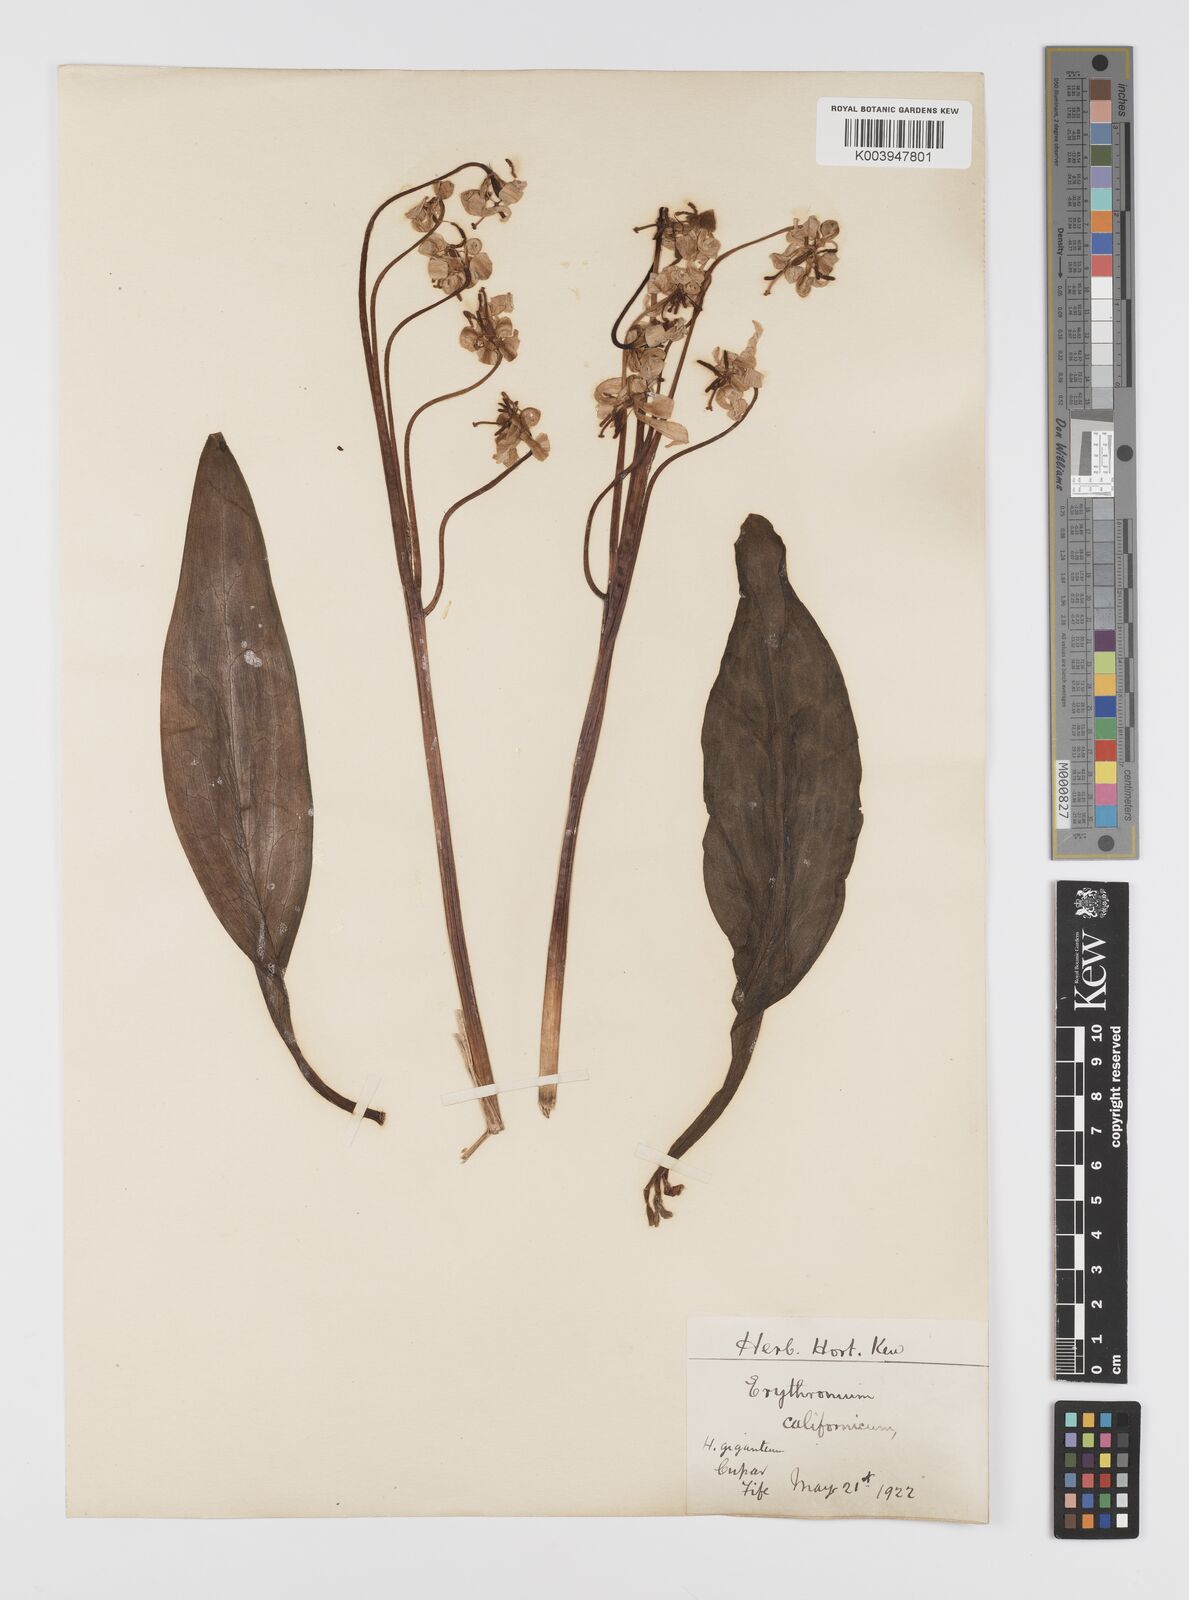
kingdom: Plantae
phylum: Tracheophyta
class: Liliopsida
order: Liliales
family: Liliaceae
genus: Erythronium
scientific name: Erythronium californicum
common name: Fawn-lily
